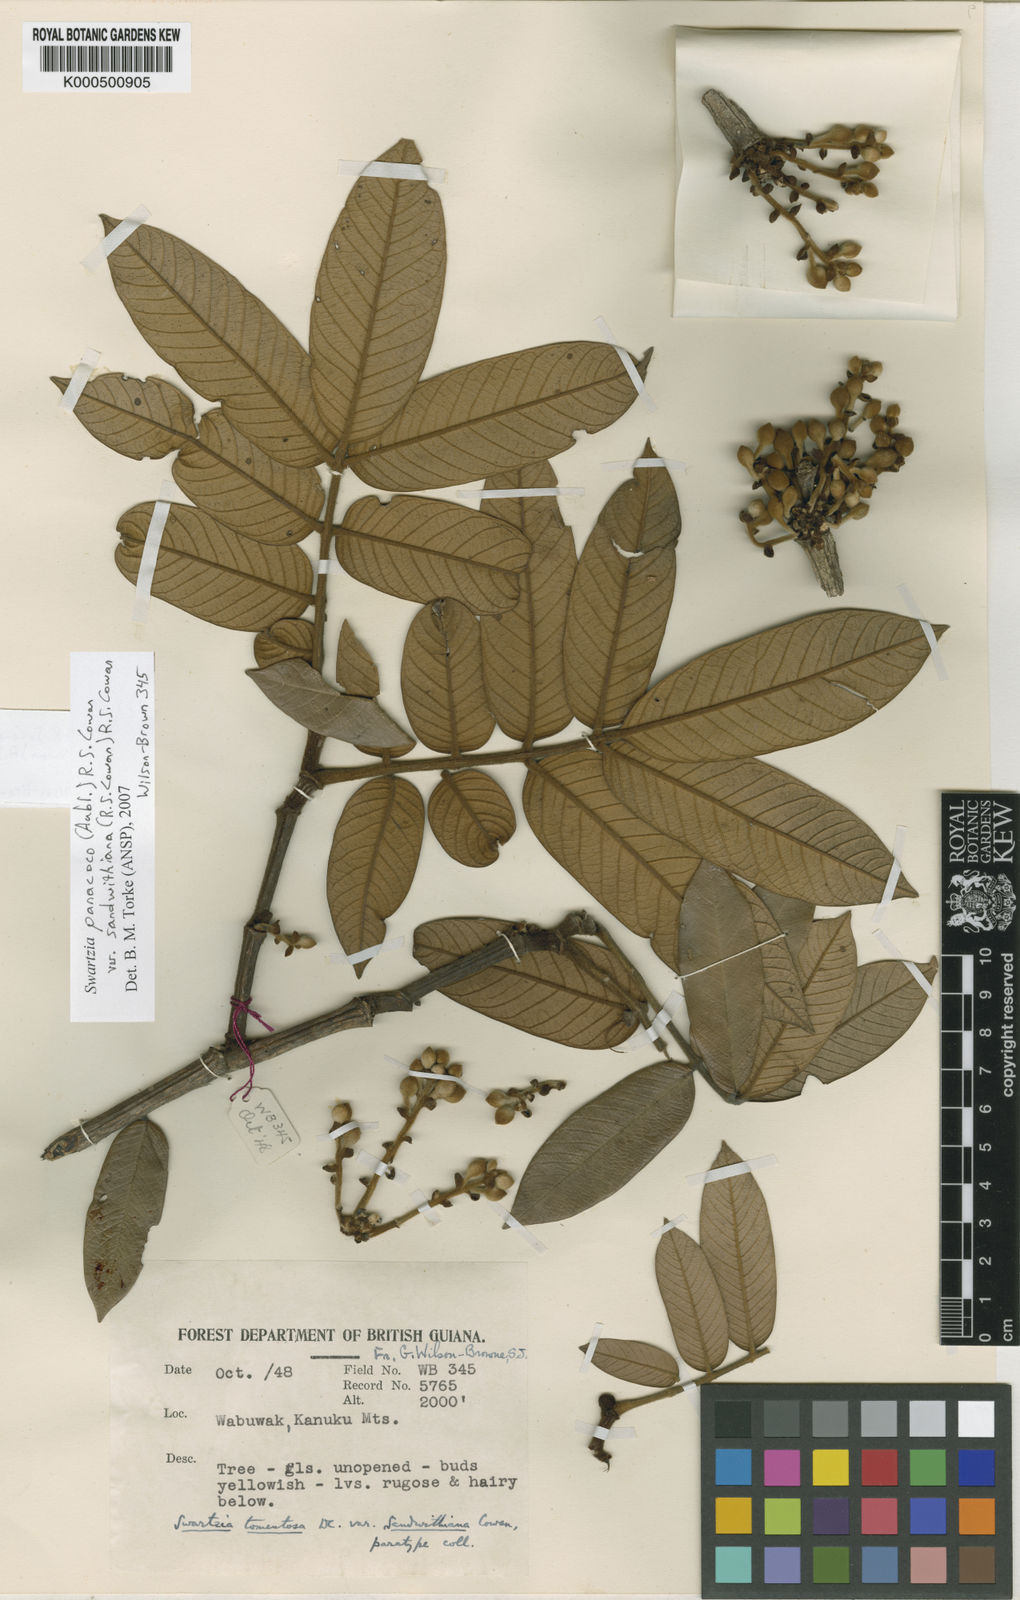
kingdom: Plantae
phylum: Tracheophyta
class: Magnoliopsida
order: Fabales
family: Fabaceae
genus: Swartzia
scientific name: Swartzia panacoco
